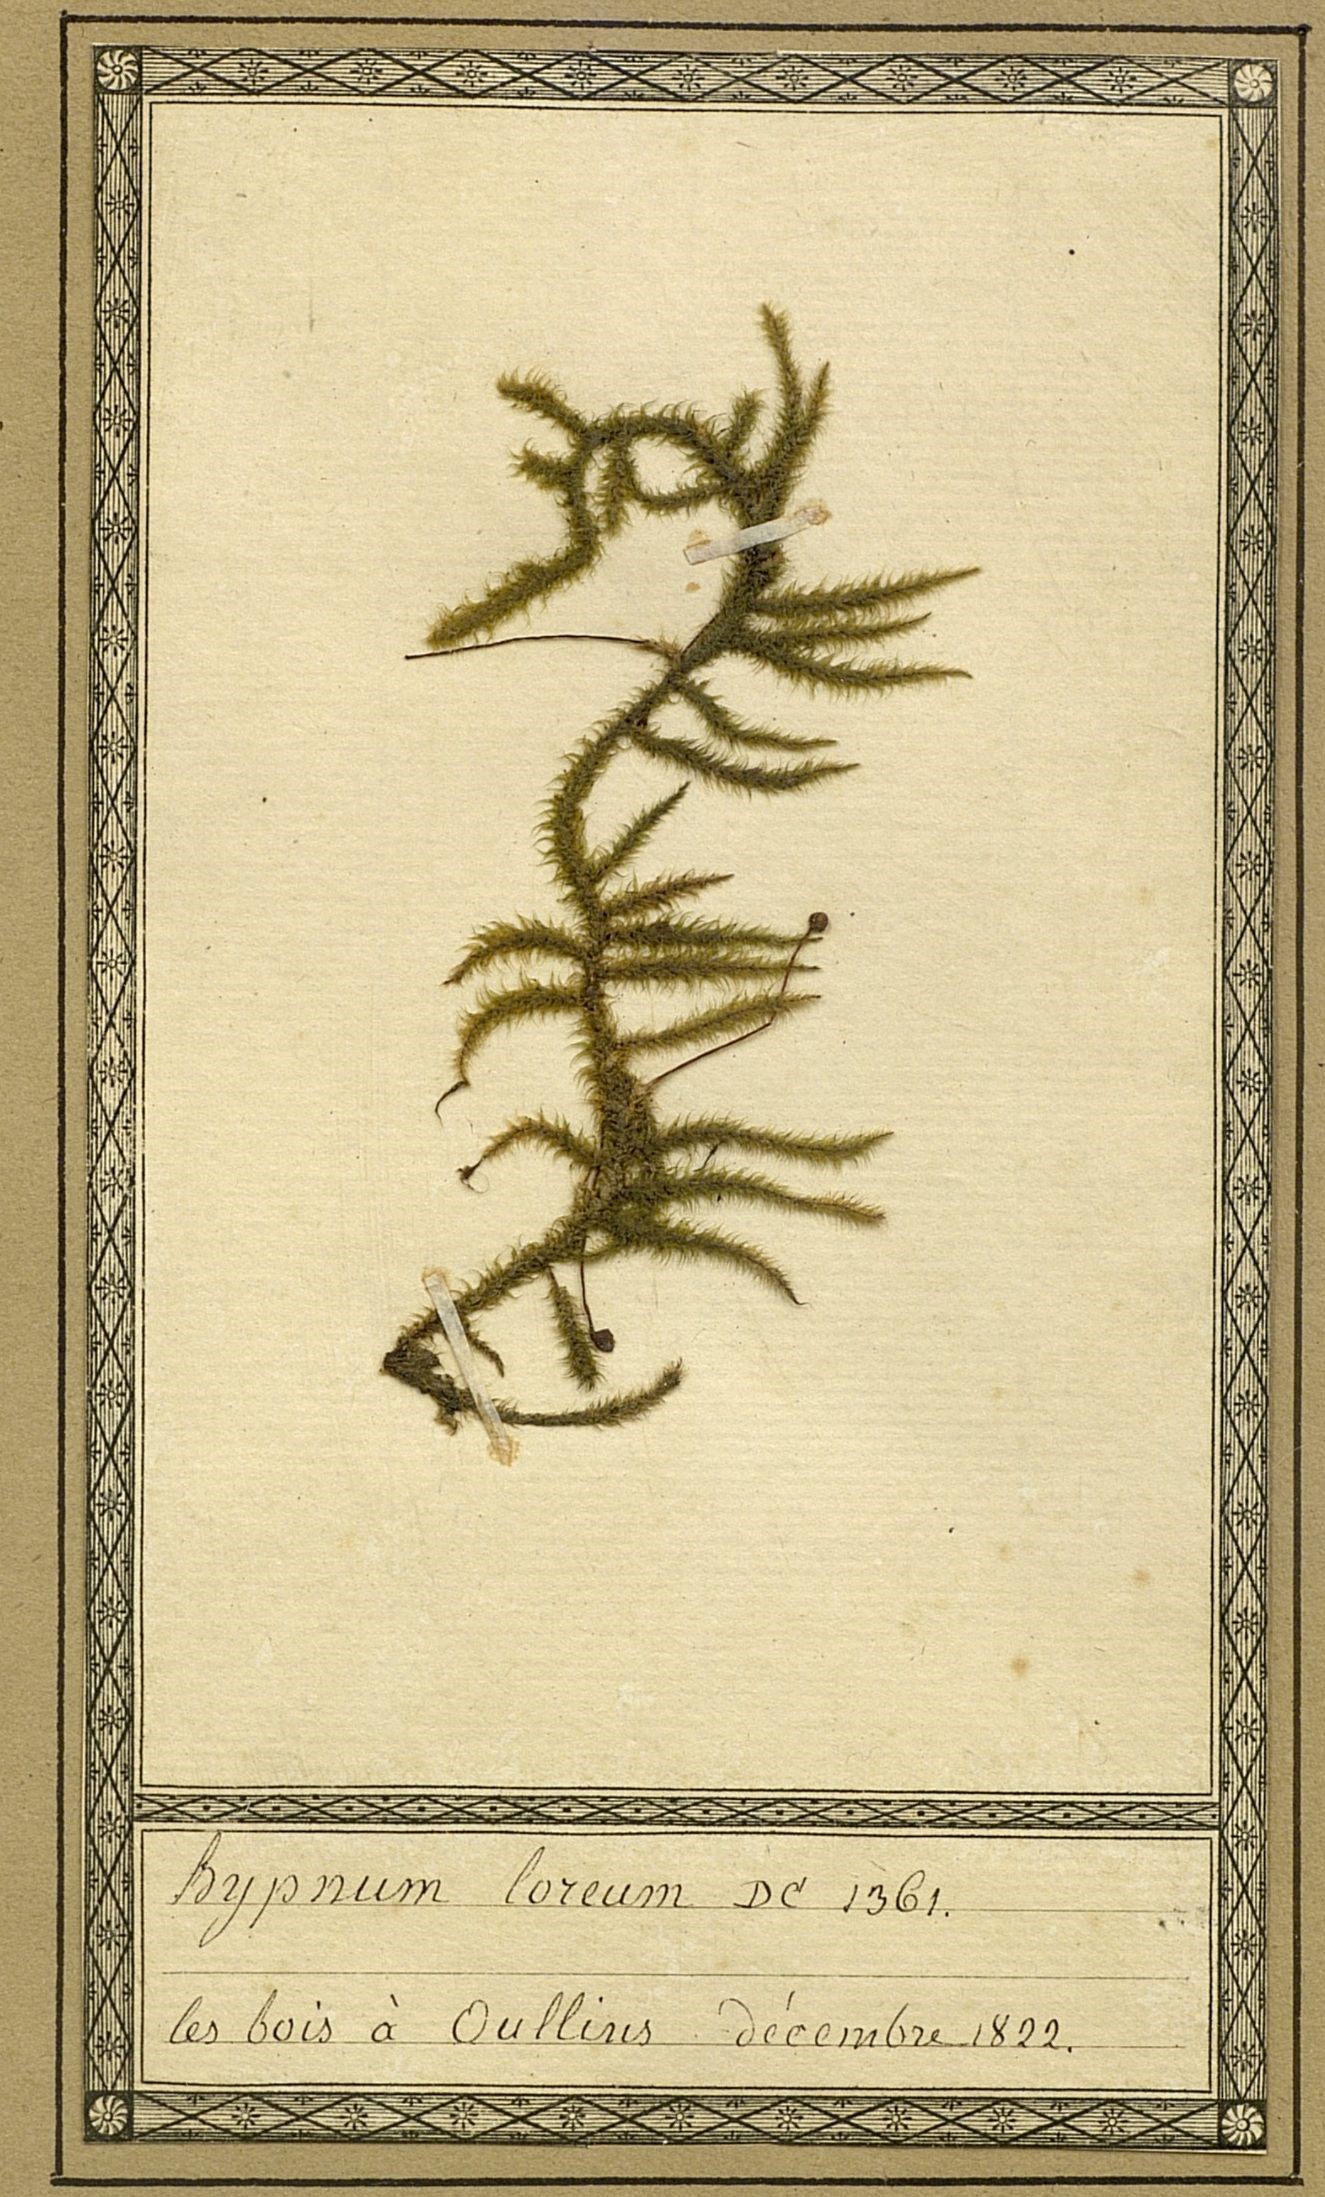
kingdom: Plantae
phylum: Bryophyta
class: Bryopsida
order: Hypnales
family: Hylocomiaceae
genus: Rhytidiadelphus
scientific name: Rhytidiadelphus loreus
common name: Lanky moss
